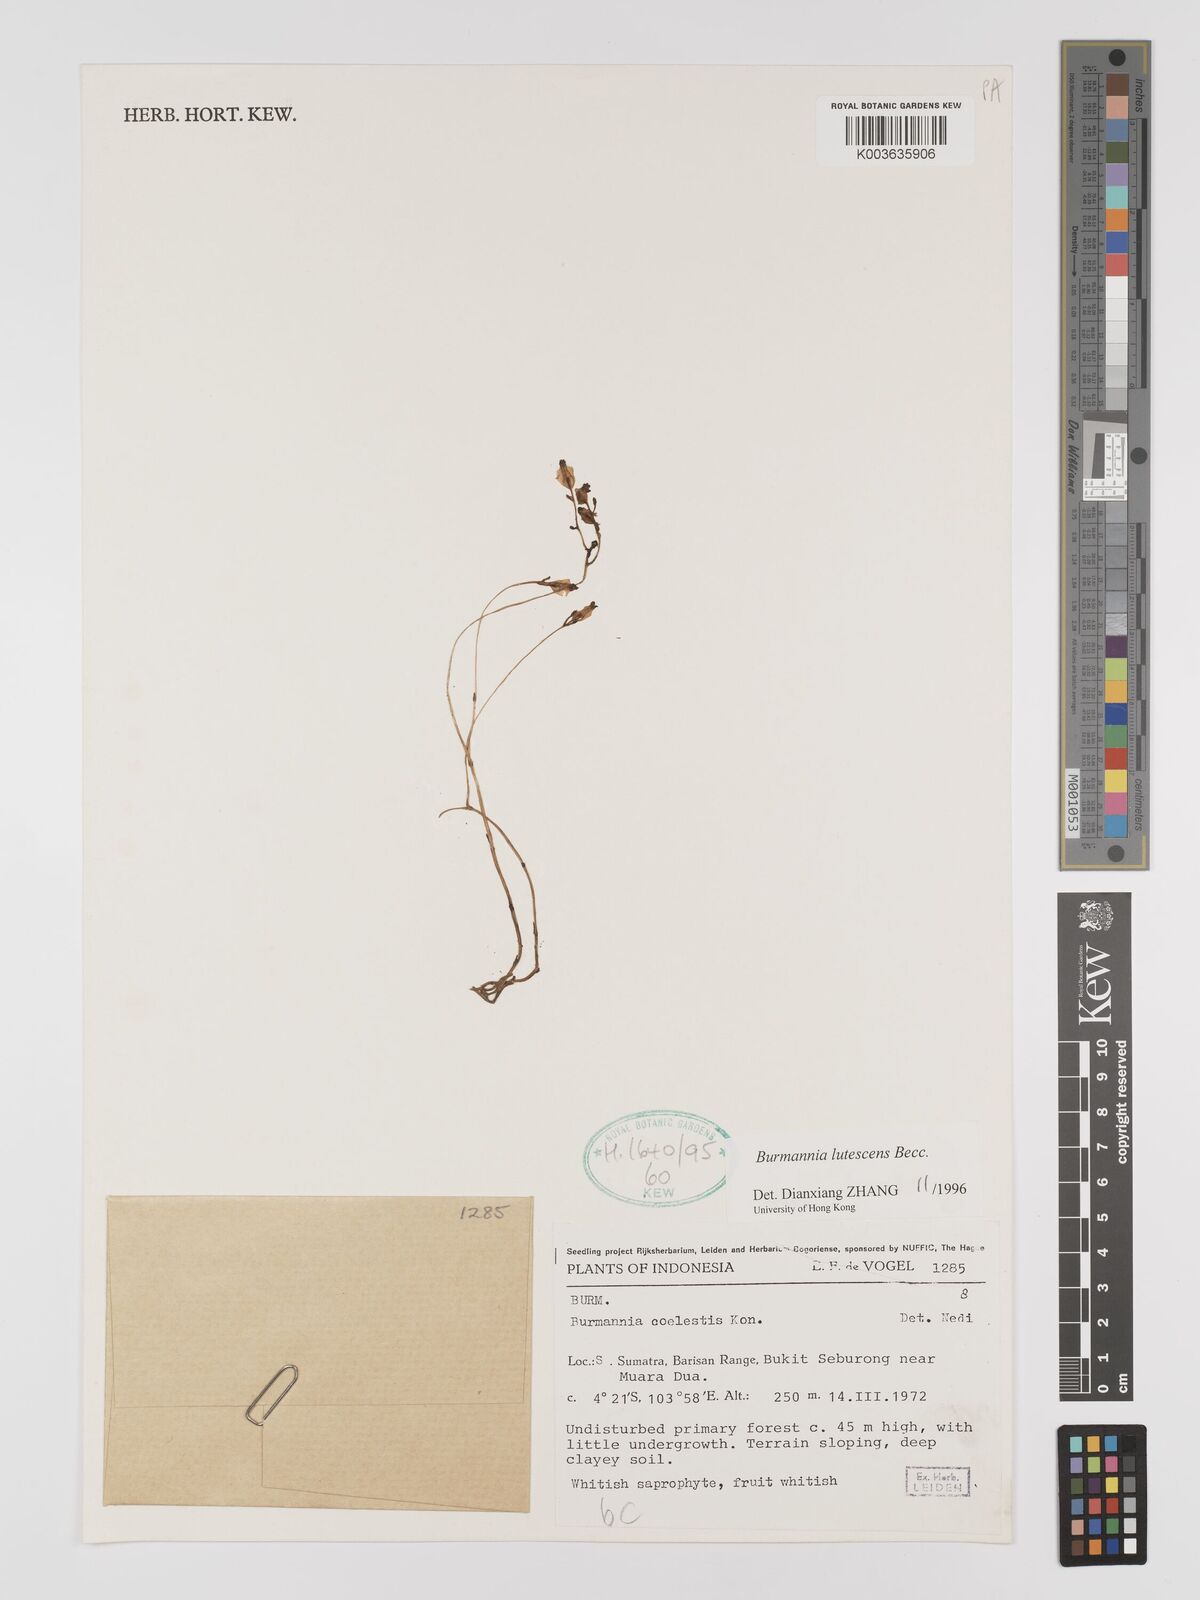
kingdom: Plantae
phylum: Tracheophyta
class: Liliopsida
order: Dioscoreales
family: Burmanniaceae
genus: Burmannia
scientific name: Burmannia lutescens
